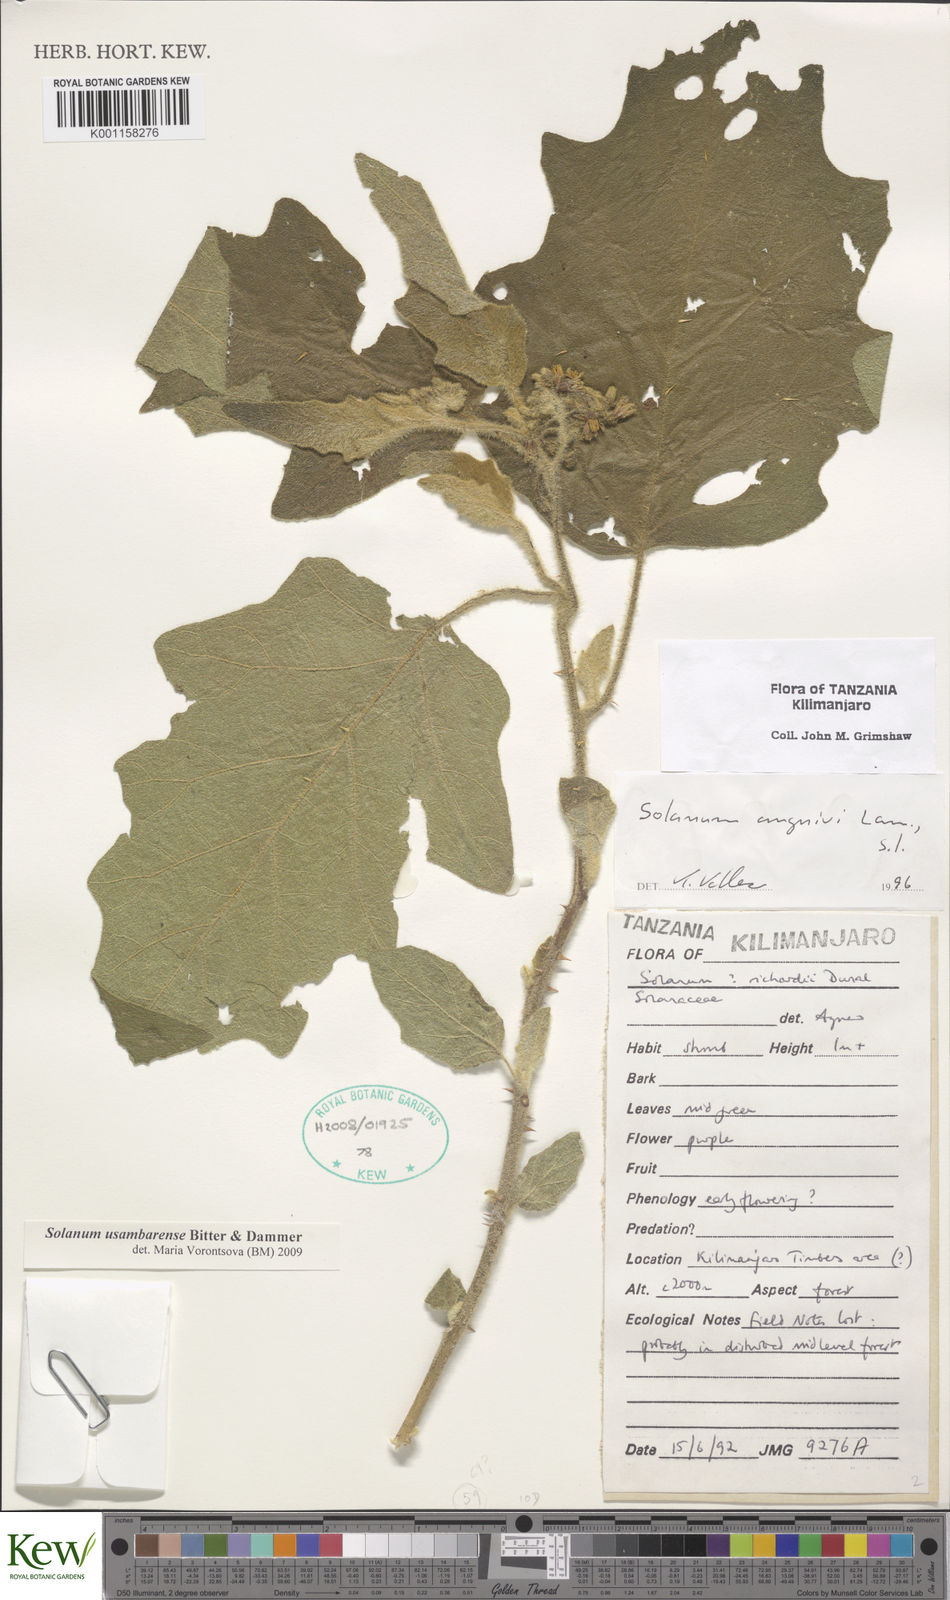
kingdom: Plantae
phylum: Tracheophyta
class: Magnoliopsida
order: Solanales
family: Solanaceae
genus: Solanum
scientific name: Solanum usambarense
